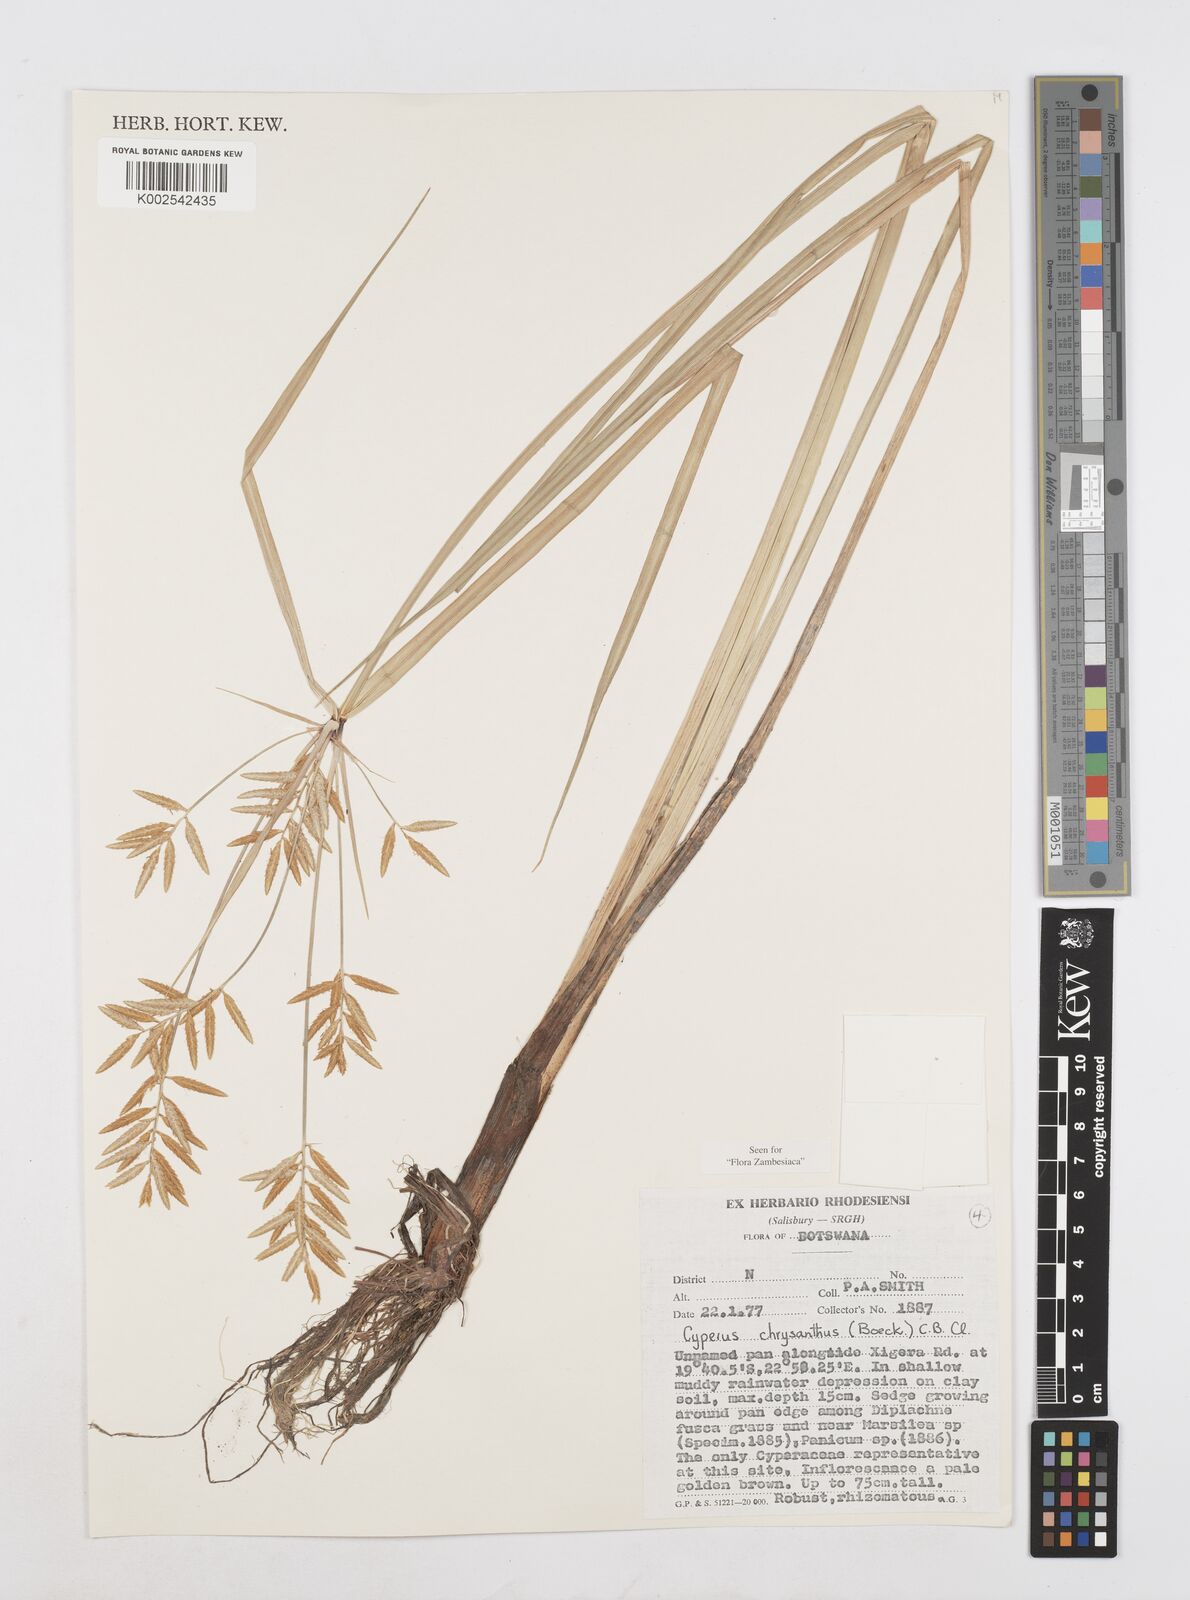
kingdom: Plantae
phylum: Tracheophyta
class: Liliopsida
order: Poales
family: Cyperaceae
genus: Cyperus
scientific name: Cyperus chrysanthus
